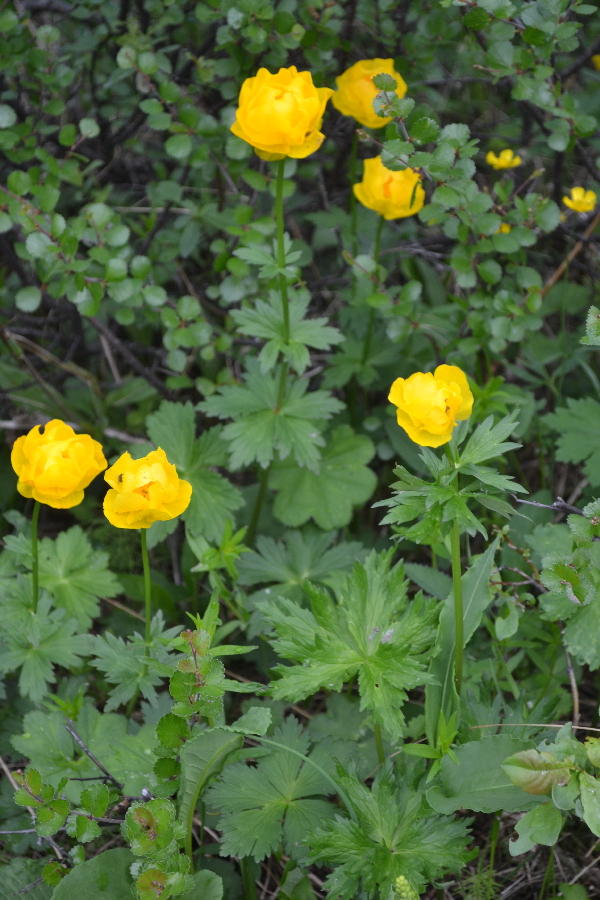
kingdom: Plantae
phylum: Tracheophyta
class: Magnoliopsida
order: Ranunculales
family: Ranunculaceae
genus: Trollius
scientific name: Trollius apertus
